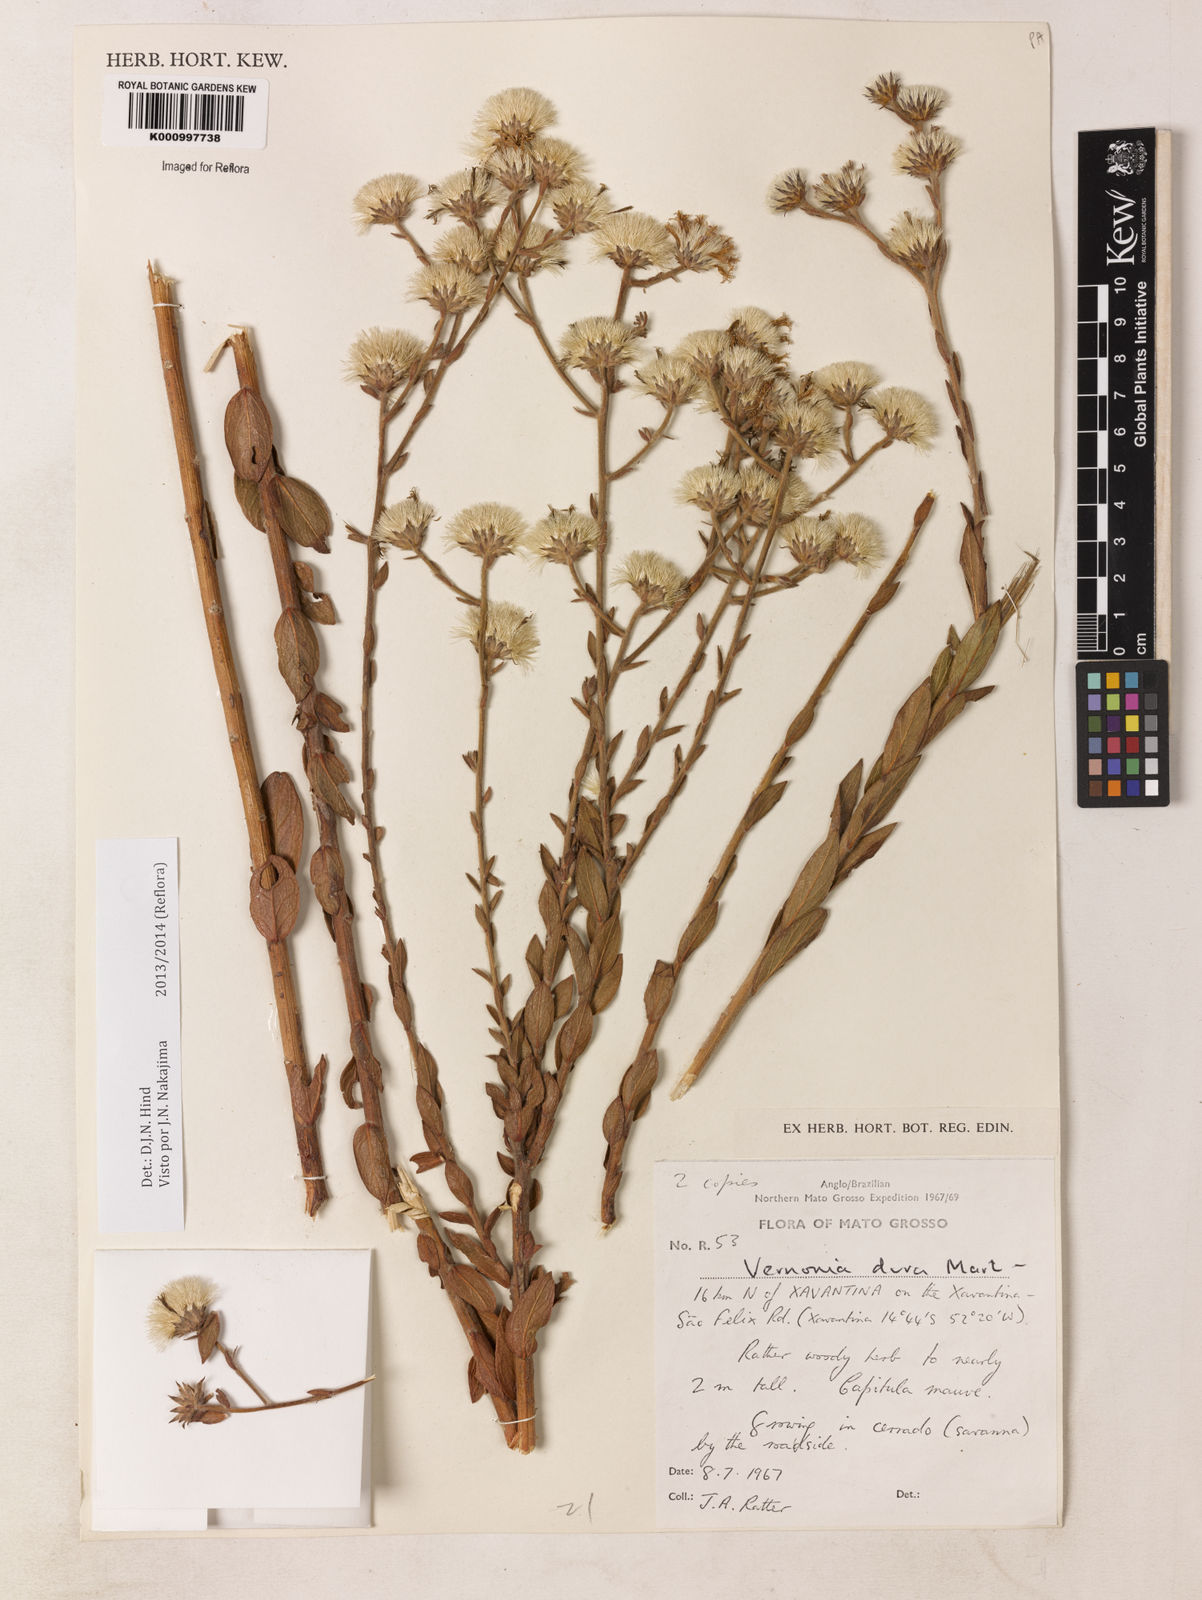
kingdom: Plantae
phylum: Tracheophyta
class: Magnoliopsida
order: Asterales
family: Asteraceae
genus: Lessingianthus
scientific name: Lessingianthus durus
